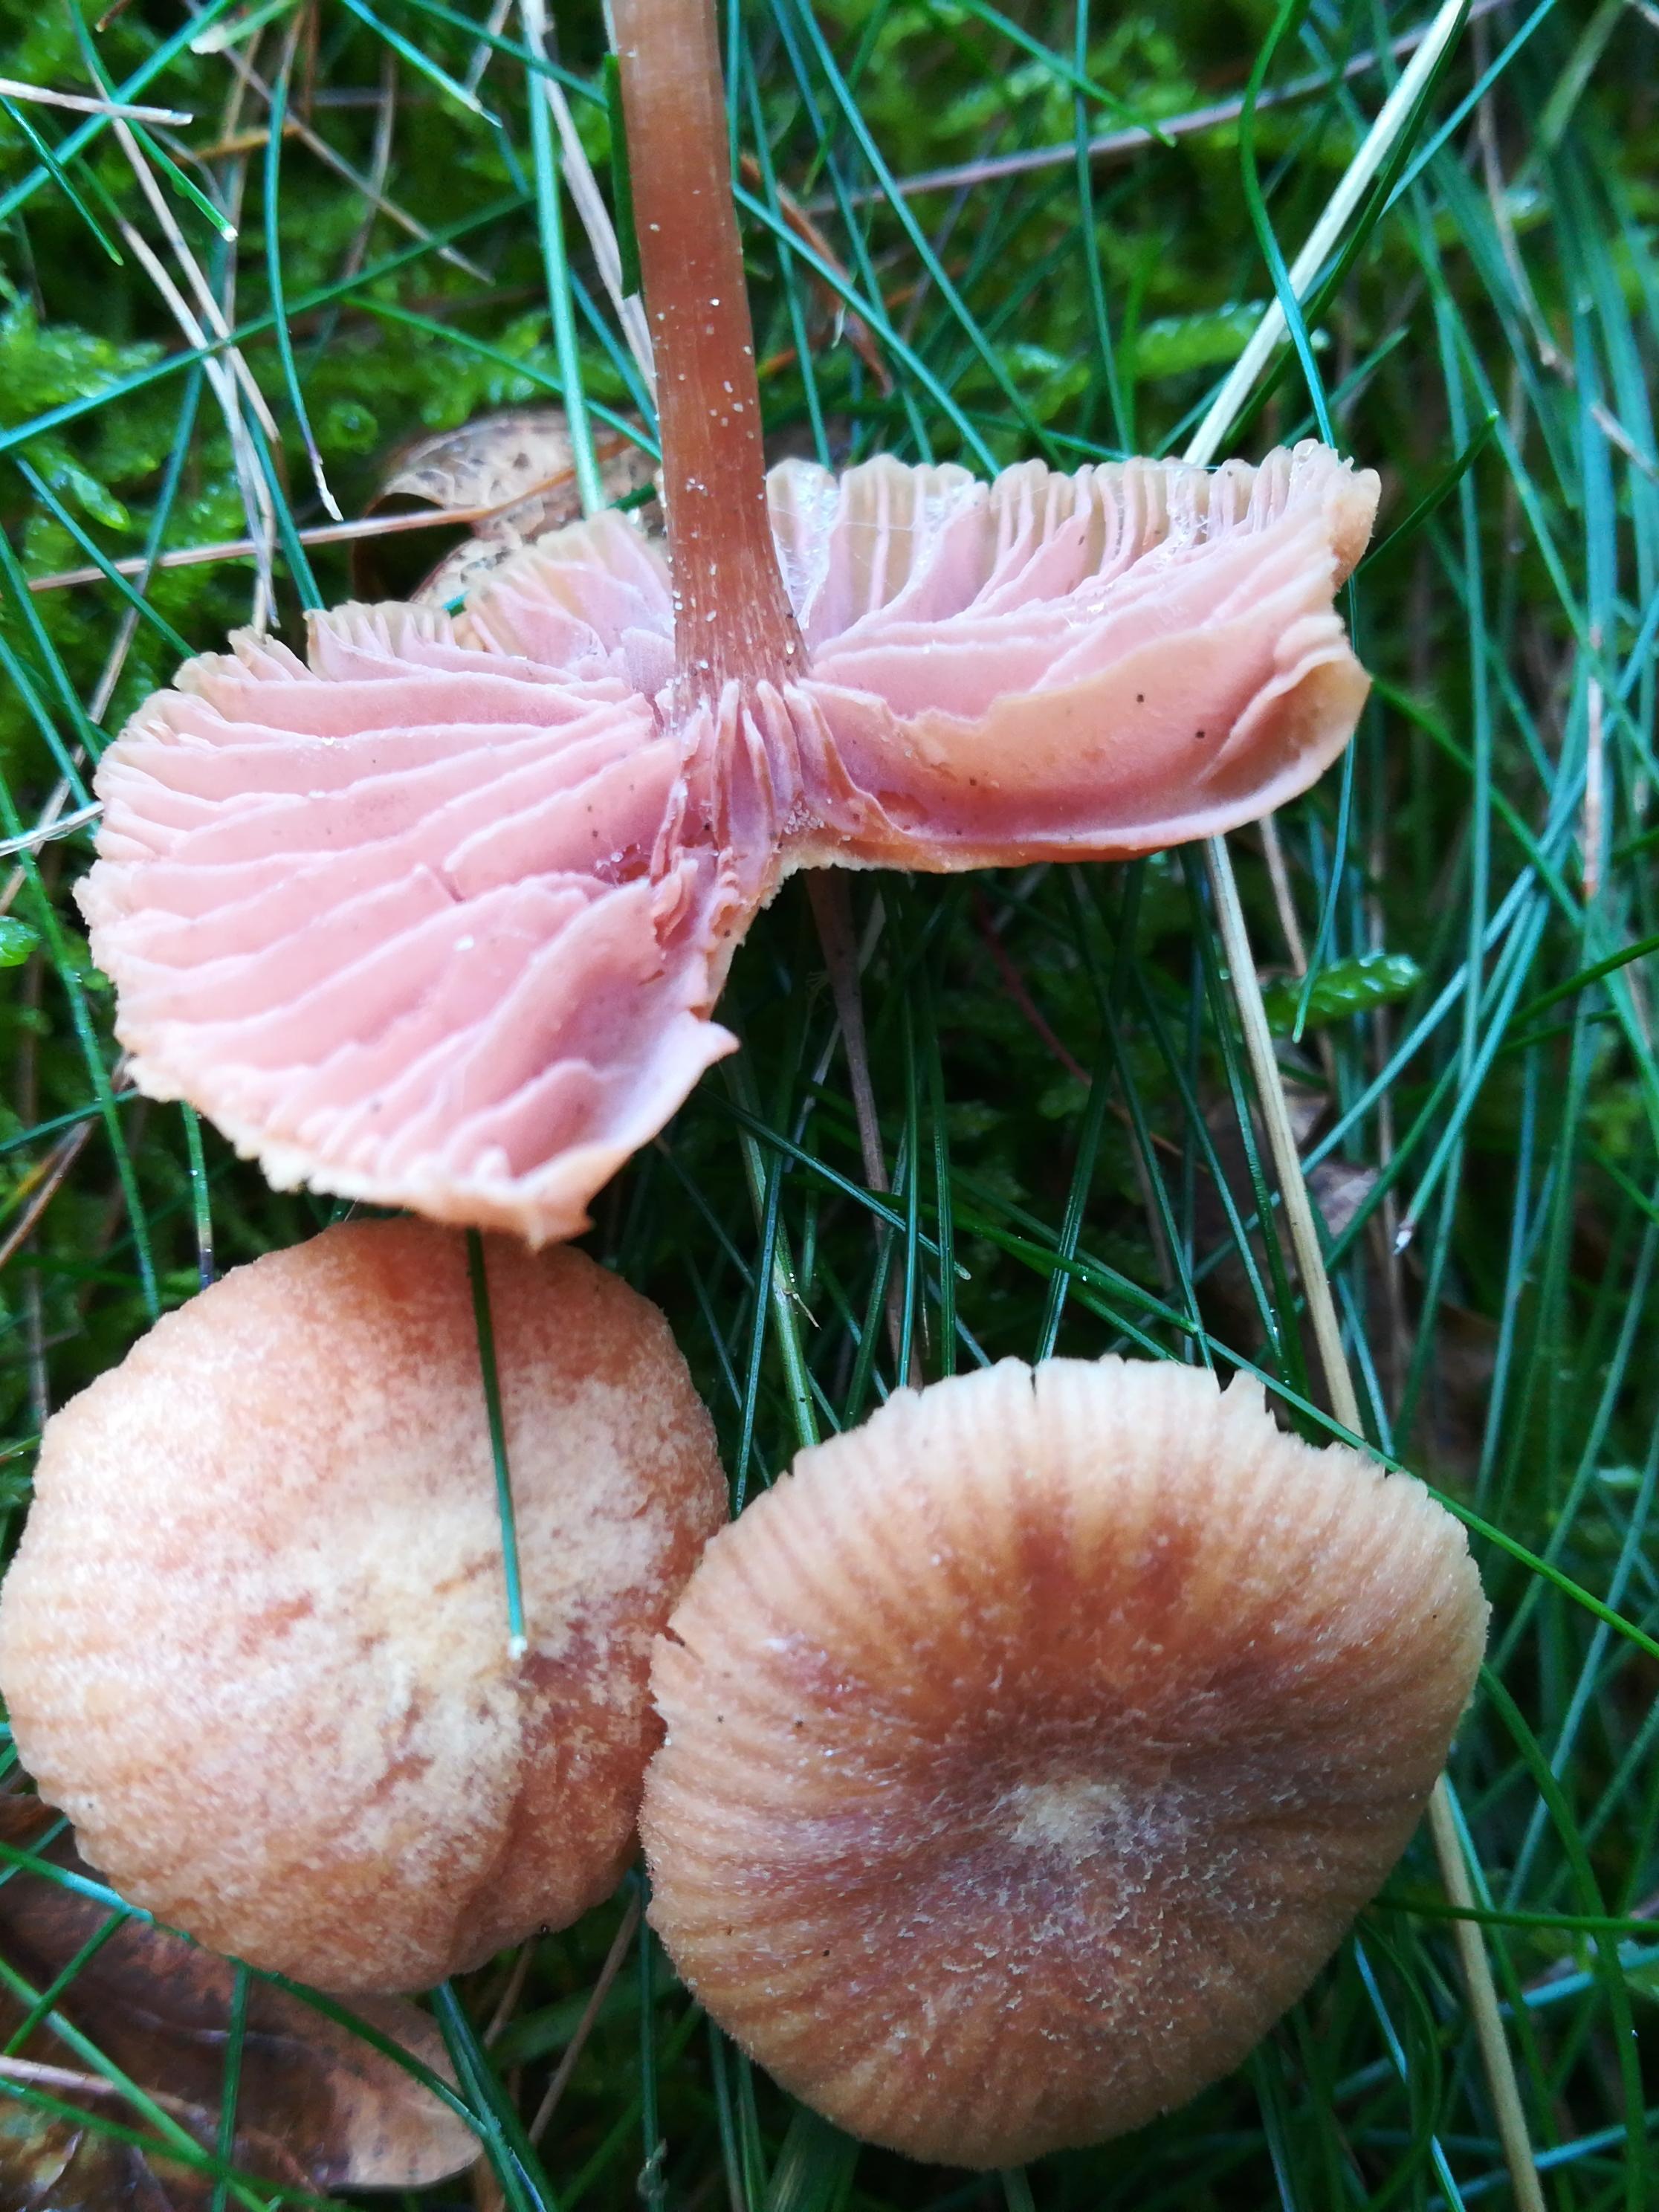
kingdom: Fungi
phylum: Basidiomycota
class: Agaricomycetes
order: Agaricales
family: Hydnangiaceae
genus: Laccaria
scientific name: Laccaria
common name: ametysthat
